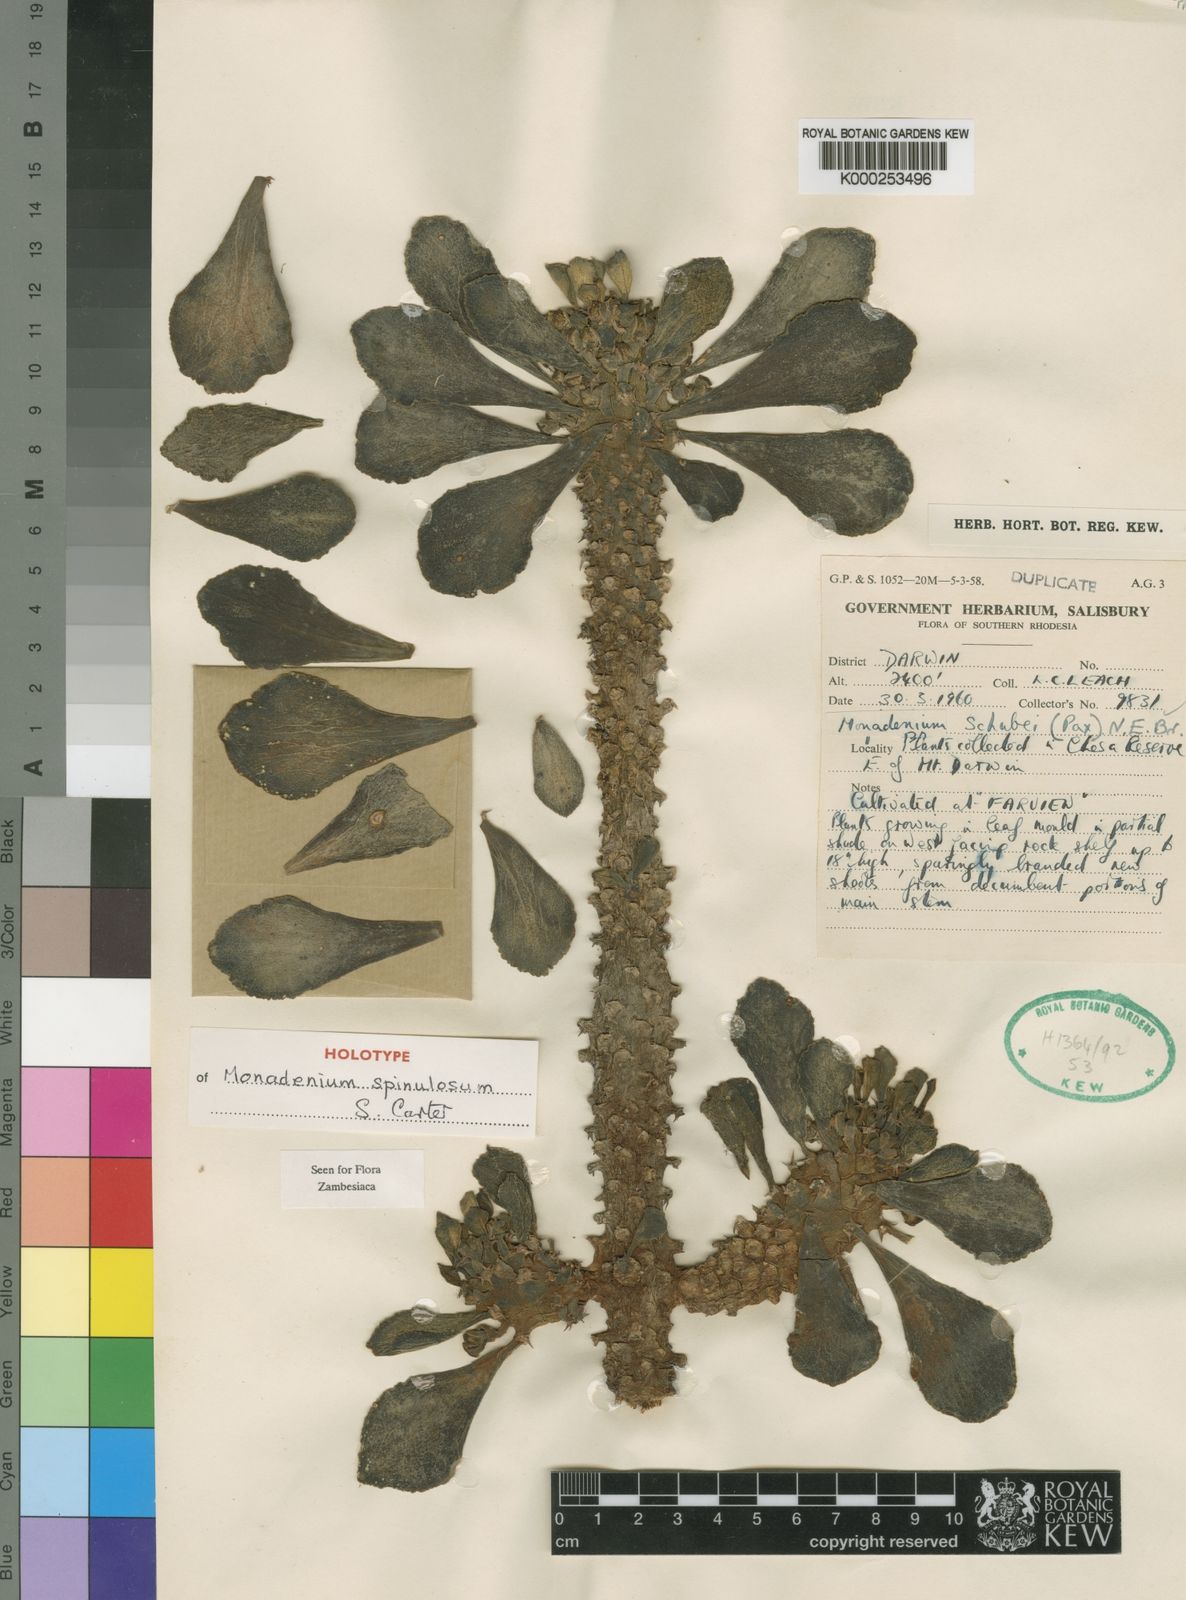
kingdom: Plantae
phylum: Tracheophyta
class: Magnoliopsida
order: Malpighiales
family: Euphorbiaceae
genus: Euphorbia
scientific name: Euphorbia spinulosa
